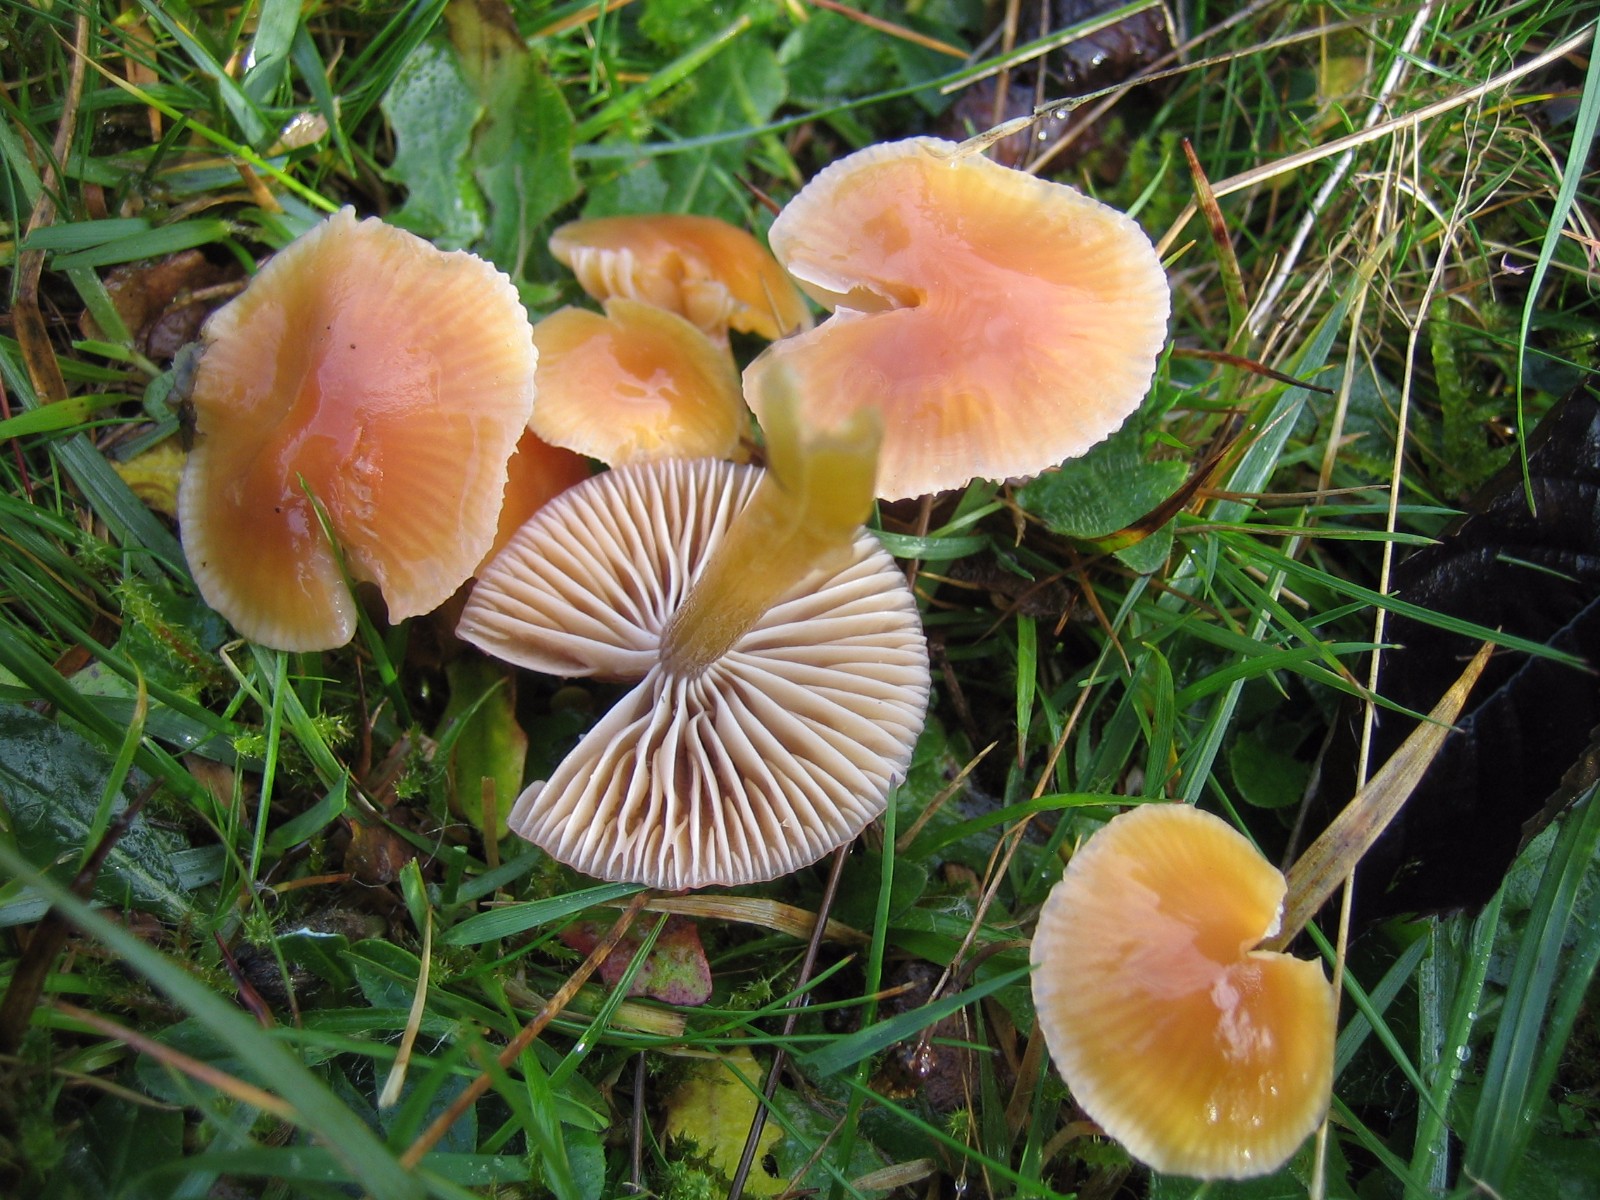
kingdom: Fungi
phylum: Basidiomycota
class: Agaricomycetes
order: Agaricales
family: Hygrophoraceae
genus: Gliophorus
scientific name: Gliophorus laetus
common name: brusk-vokshat
